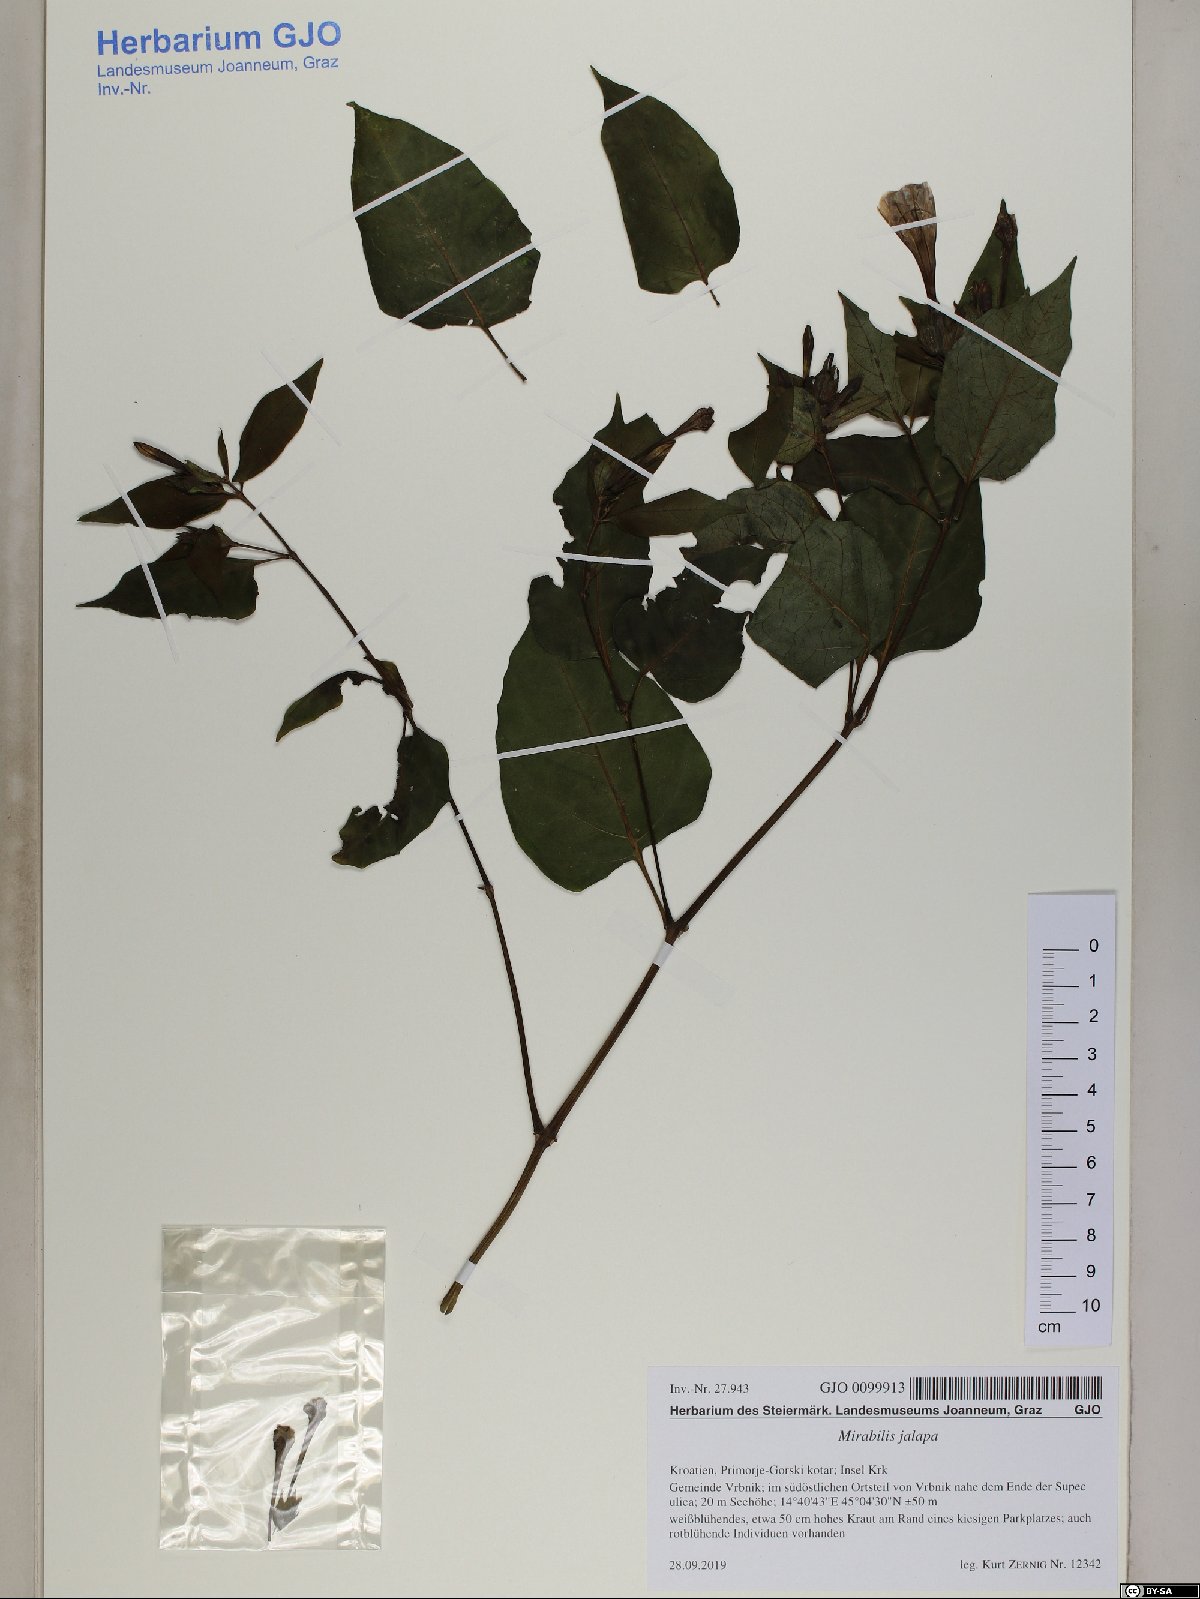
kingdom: Plantae
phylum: Tracheophyta
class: Magnoliopsida
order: Caryophyllales
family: Nyctaginaceae
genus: Mirabilis
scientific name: Mirabilis jalapa
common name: Marvel-of-peru
